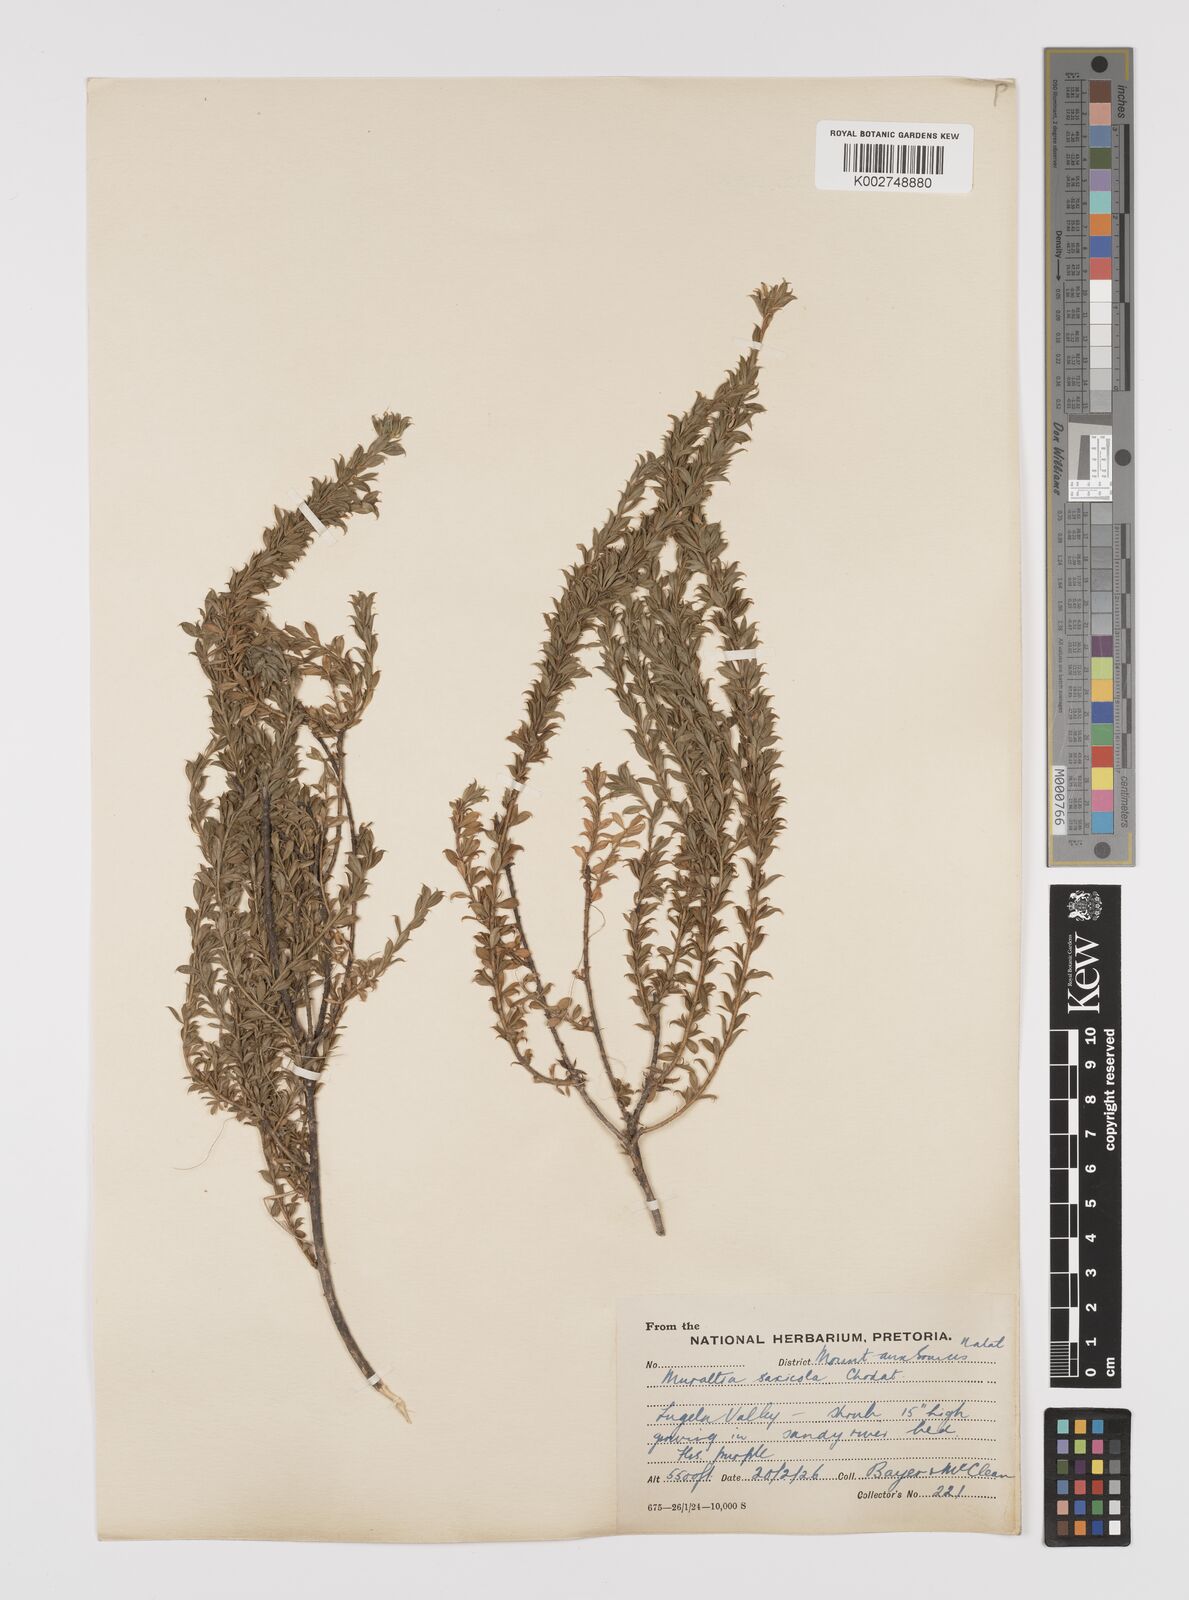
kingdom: Plantae
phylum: Tracheophyta
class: Magnoliopsida
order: Fabales
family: Polygalaceae
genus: Muraltia
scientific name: Muraltia saxicola
